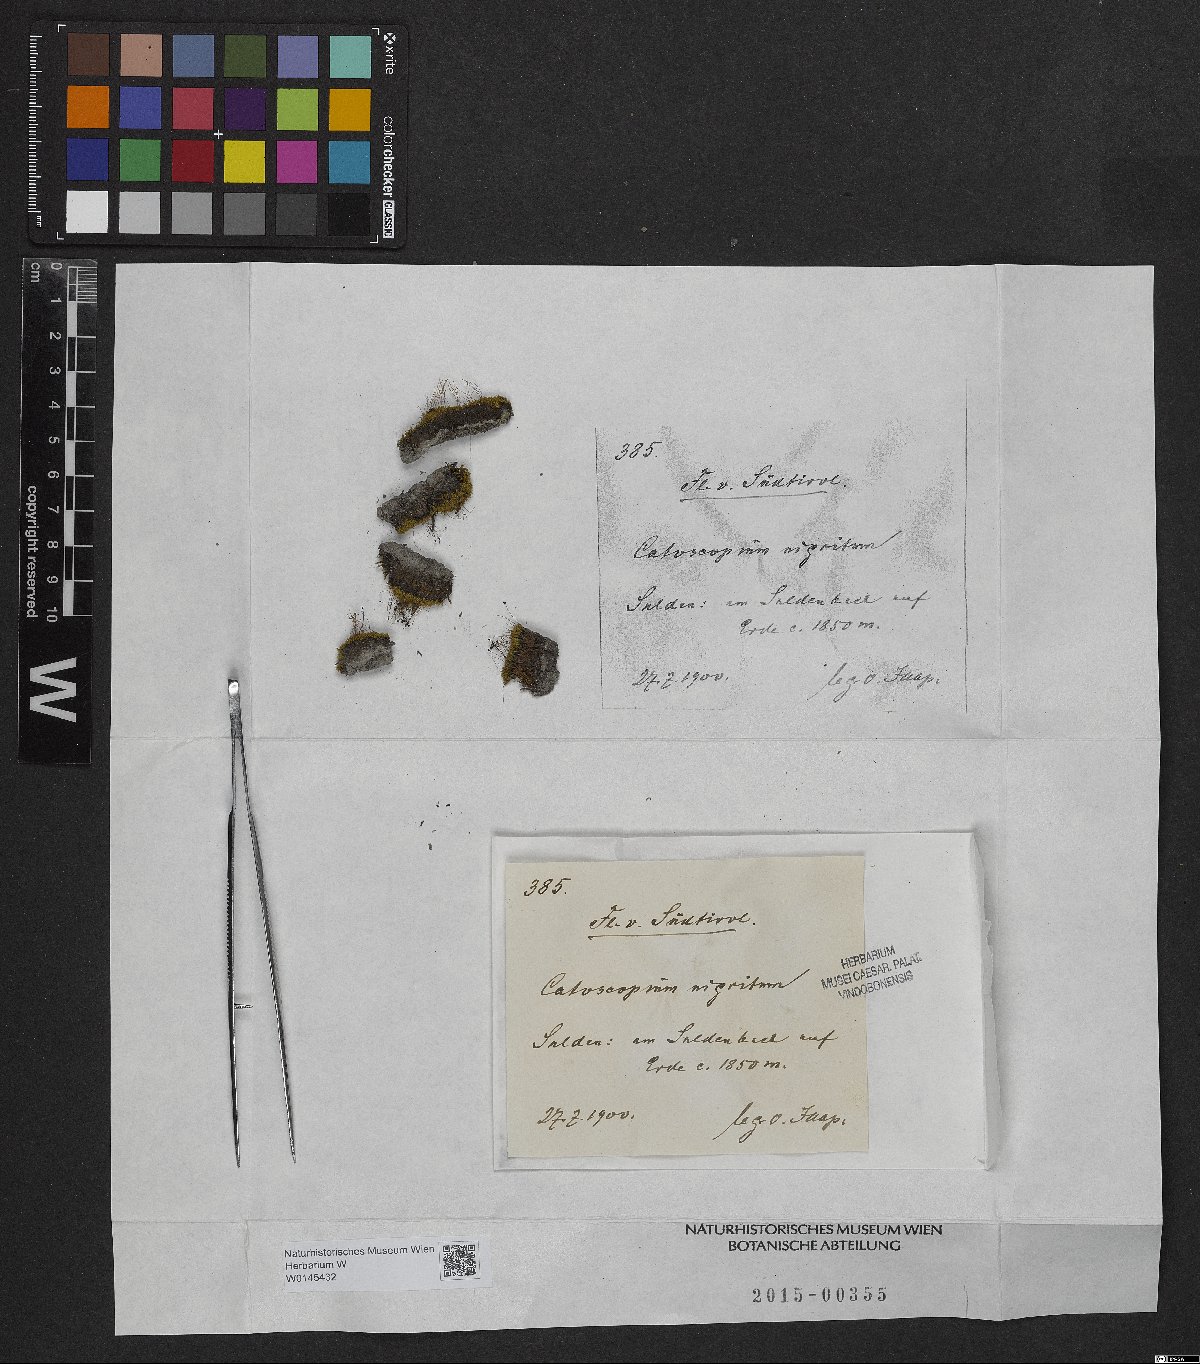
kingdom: Plantae
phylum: Bryophyta
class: Bryopsida
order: Catoscopiales
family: Catoscopiaceae
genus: Catoscopium
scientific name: Catoscopium nigritum
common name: Black golf club moss
